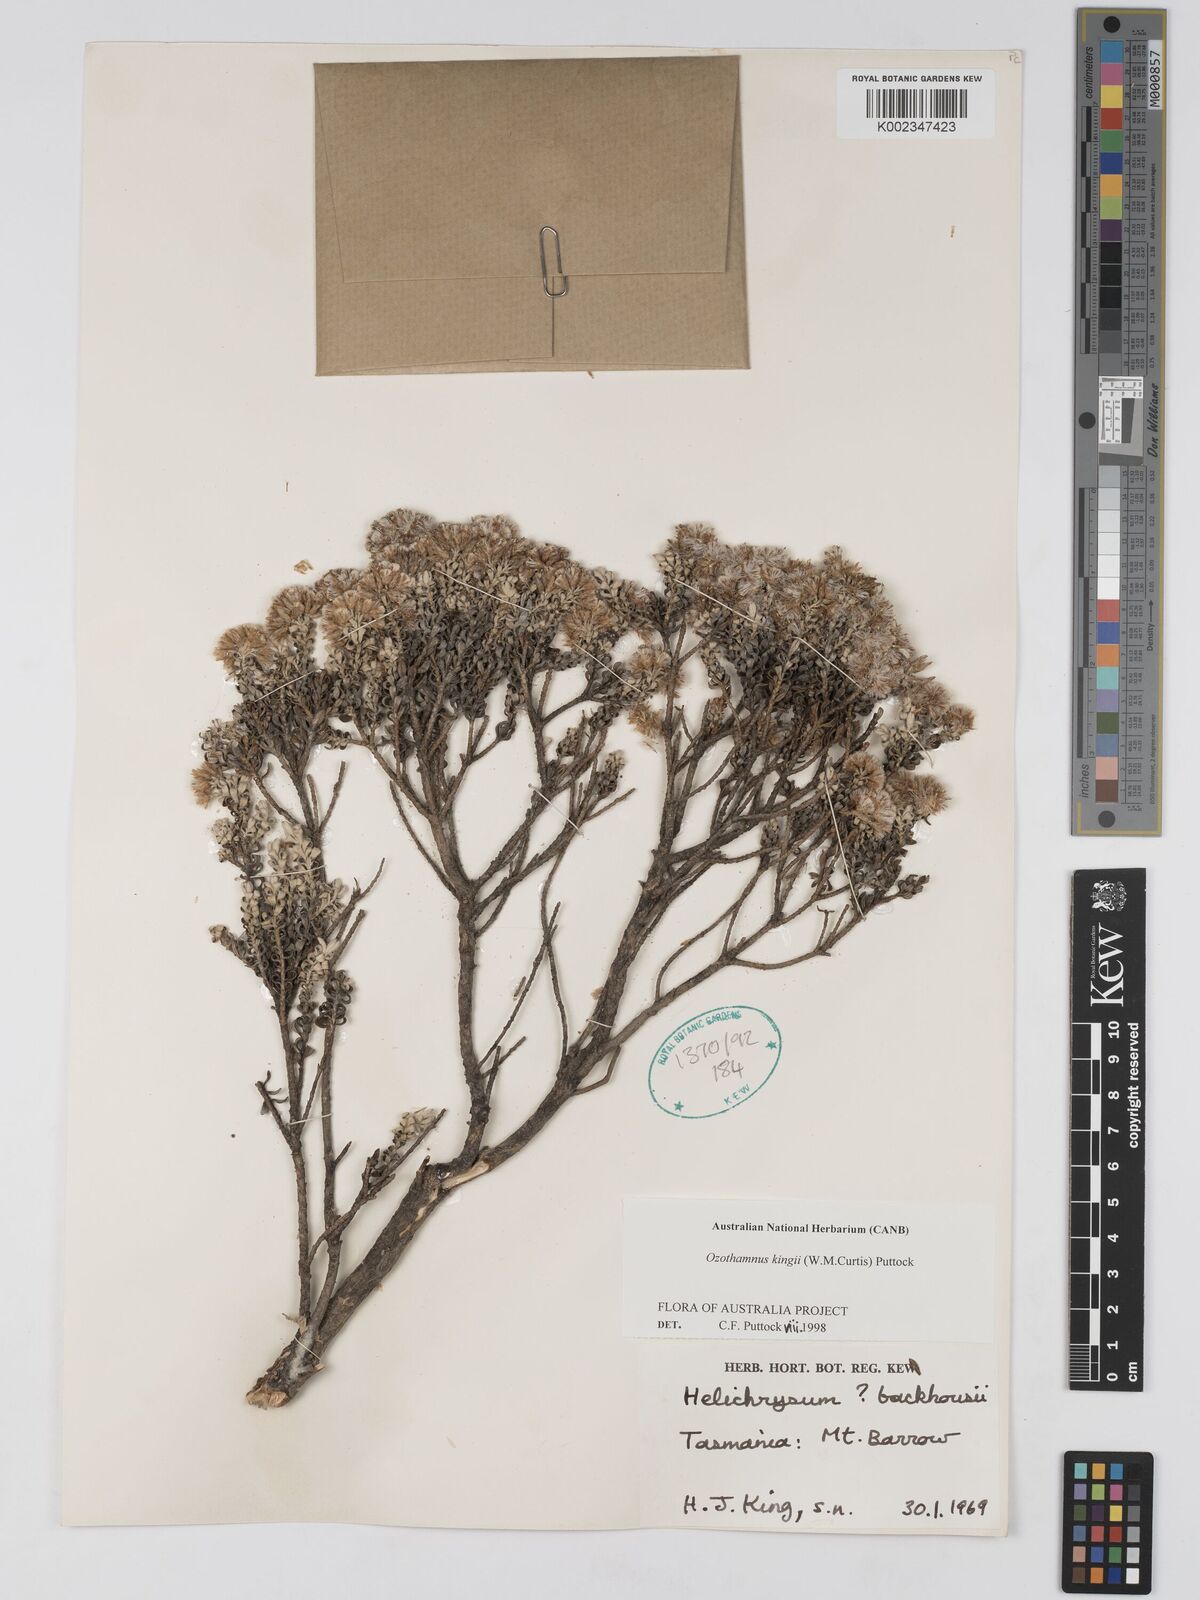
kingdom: Plantae
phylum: Tracheophyta
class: Magnoliopsida
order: Asterales
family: Asteraceae
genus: Ozothamnus
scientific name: Ozothamnus
